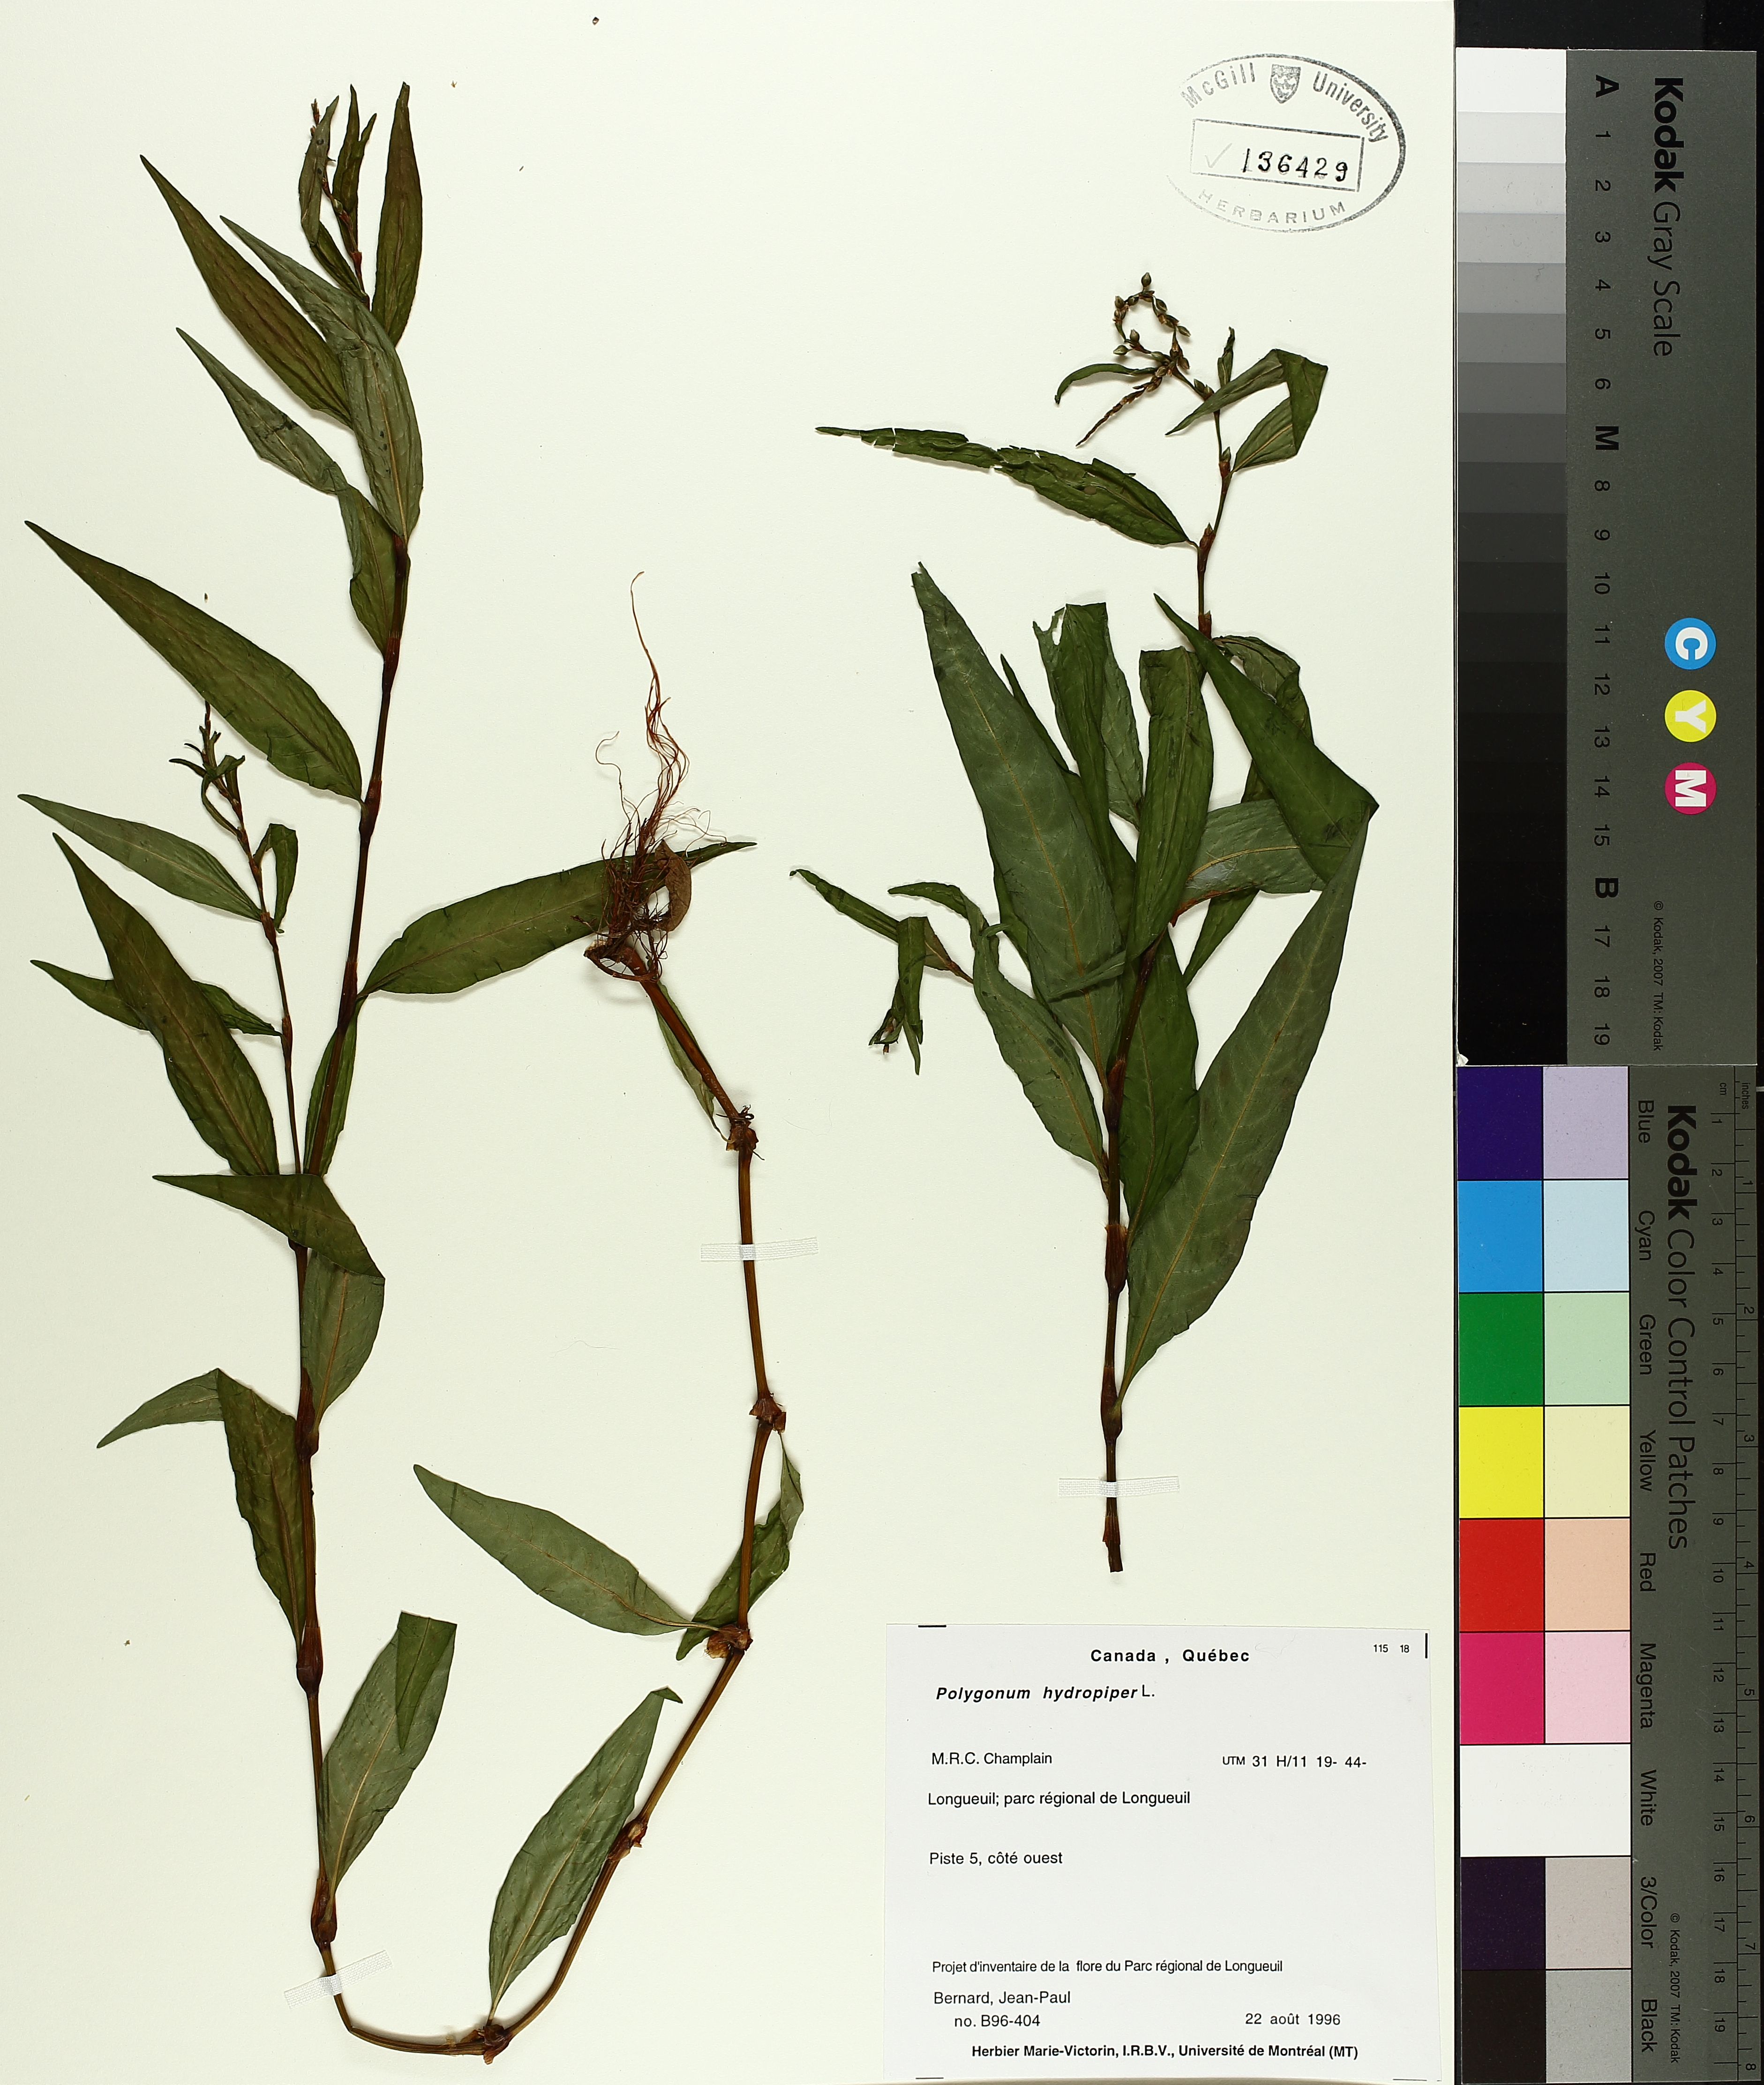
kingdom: Plantae
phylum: Tracheophyta
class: Magnoliopsida
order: Caryophyllales
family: Polygonaceae
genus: Persicaria
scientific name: Persicaria hydropiper
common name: Water-pepper
